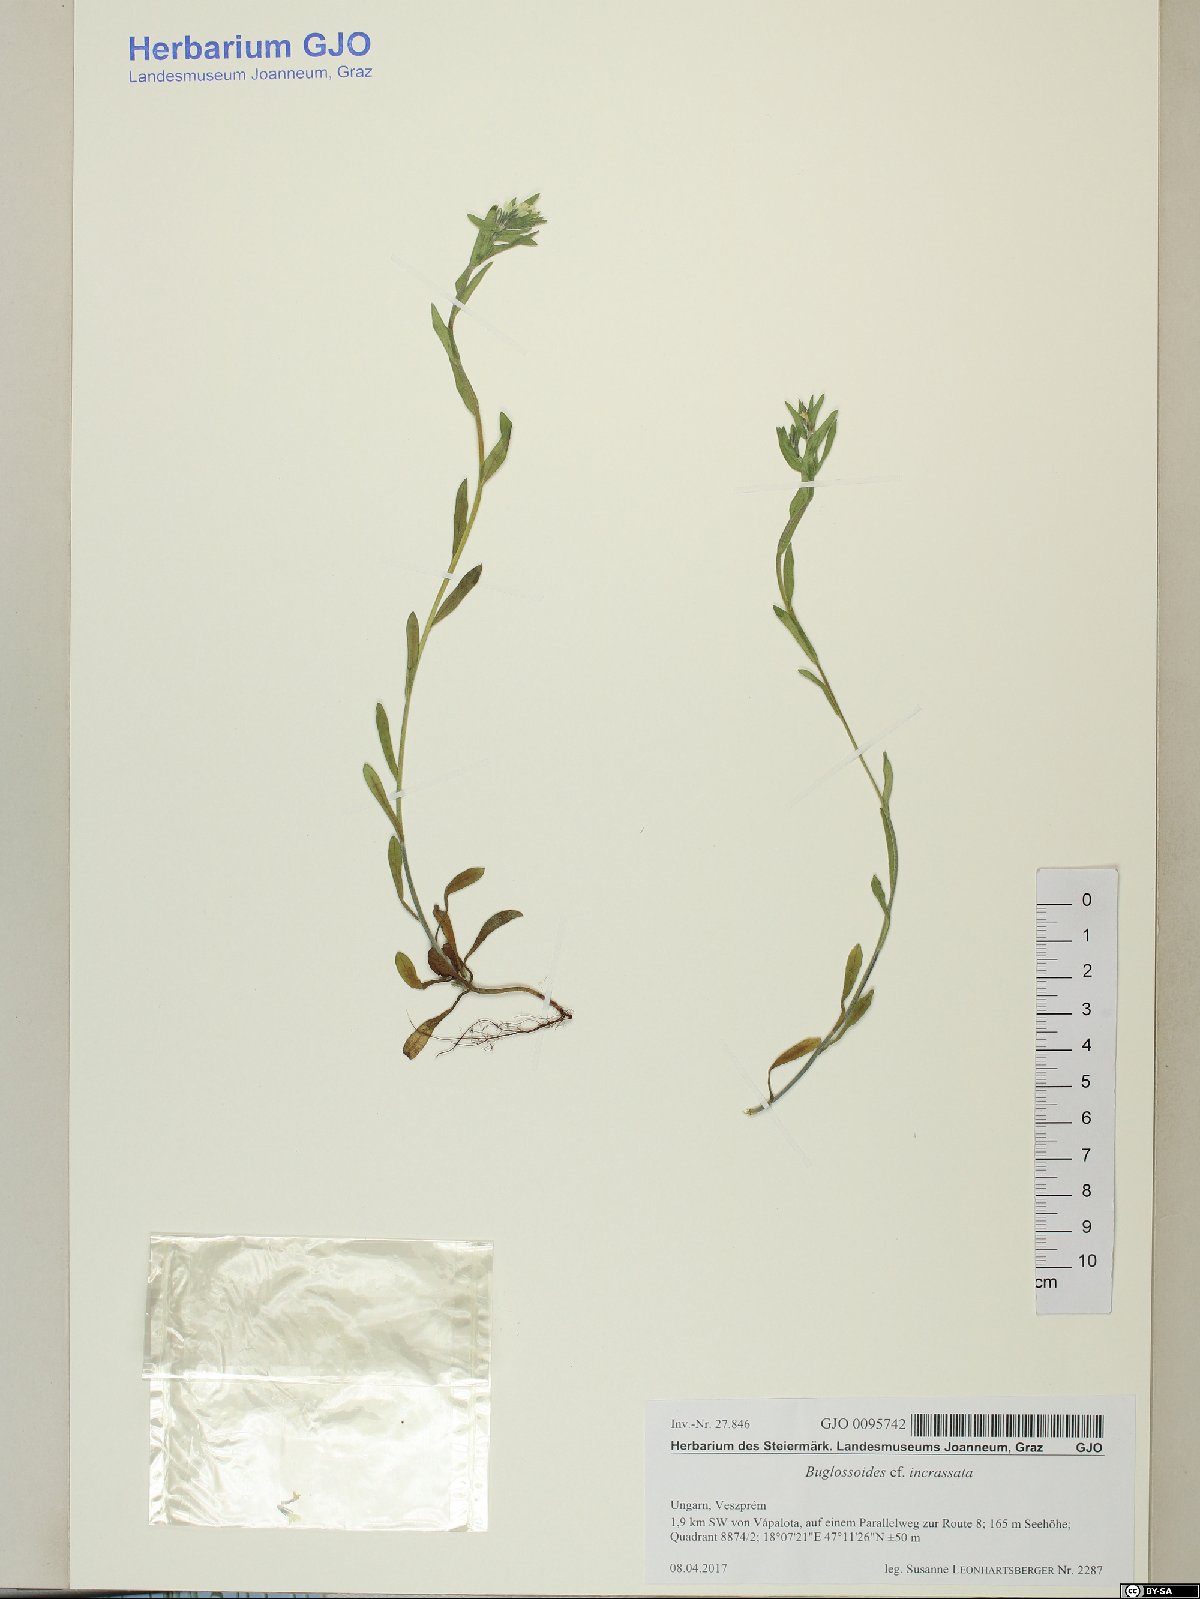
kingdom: Plantae
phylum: Tracheophyta
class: Magnoliopsida
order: Boraginales
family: Boraginaceae
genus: Buglossoides
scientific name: Buglossoides incrassata
